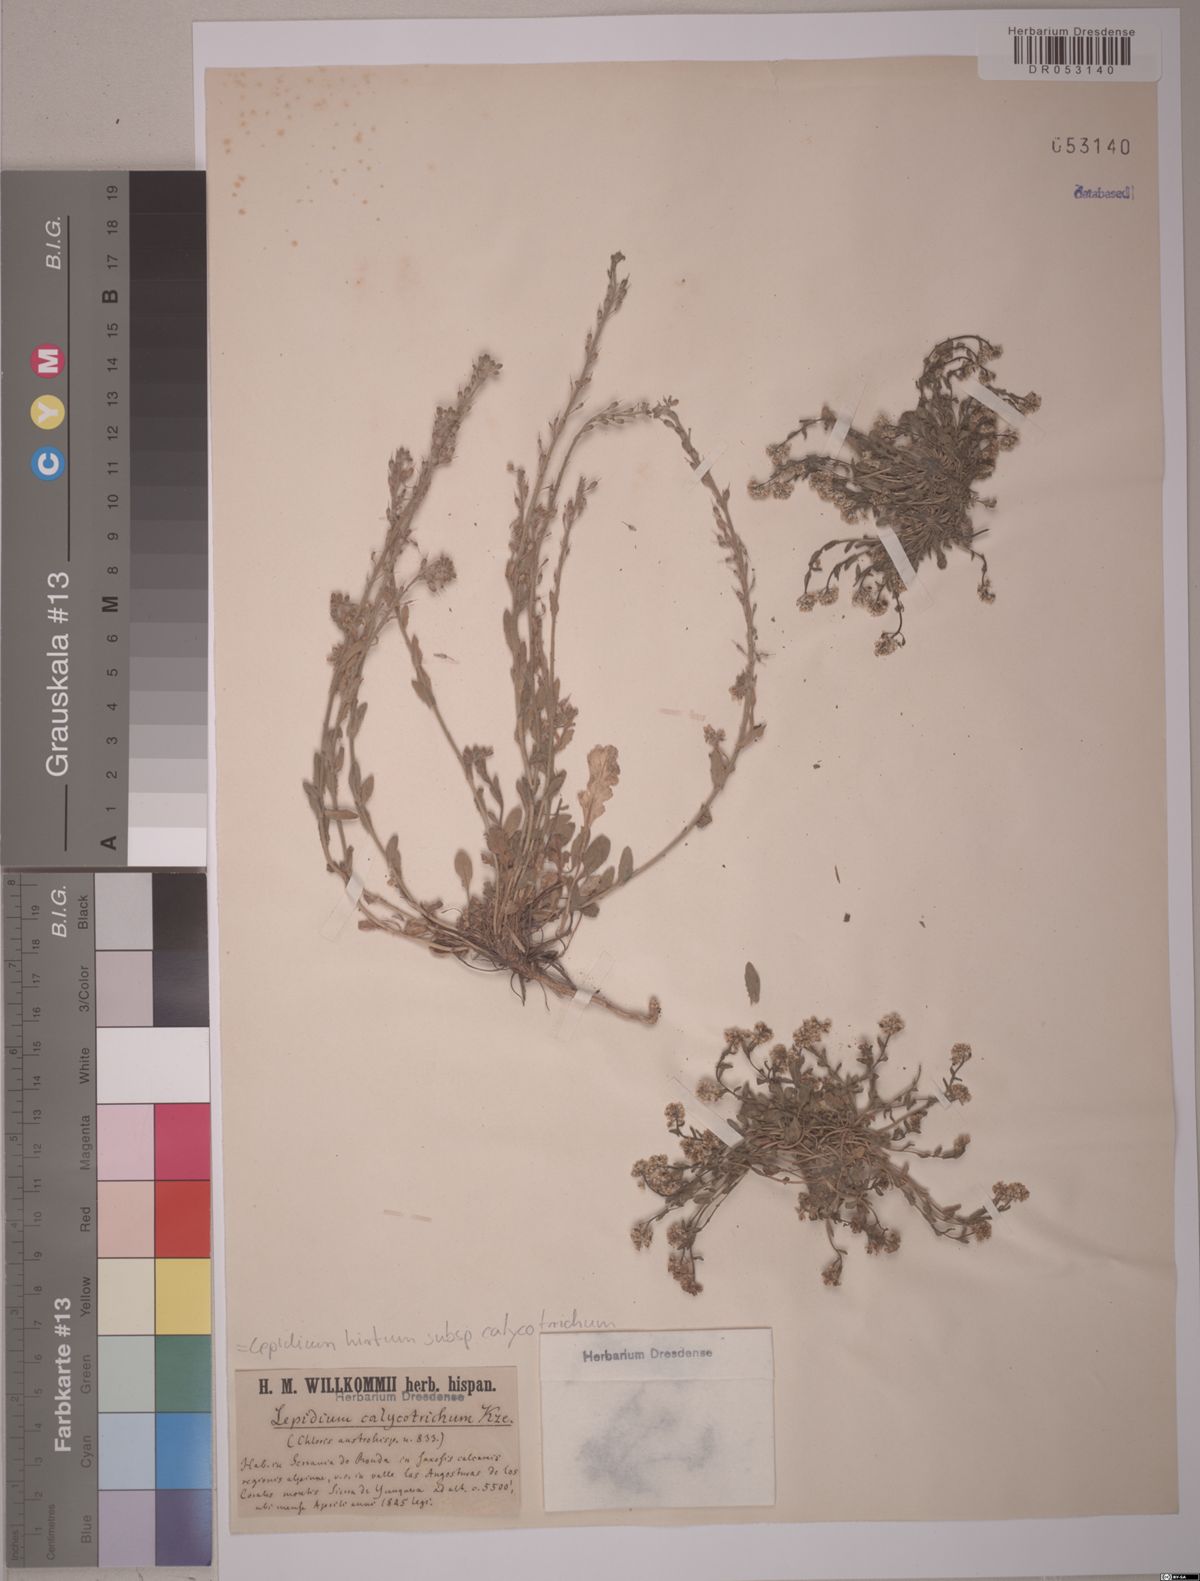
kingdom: Plantae
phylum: Tracheophyta
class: Magnoliopsida
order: Brassicales
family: Brassicaceae
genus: Lepidium
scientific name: Lepidium hirtum
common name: Mediterranean pepperweed
